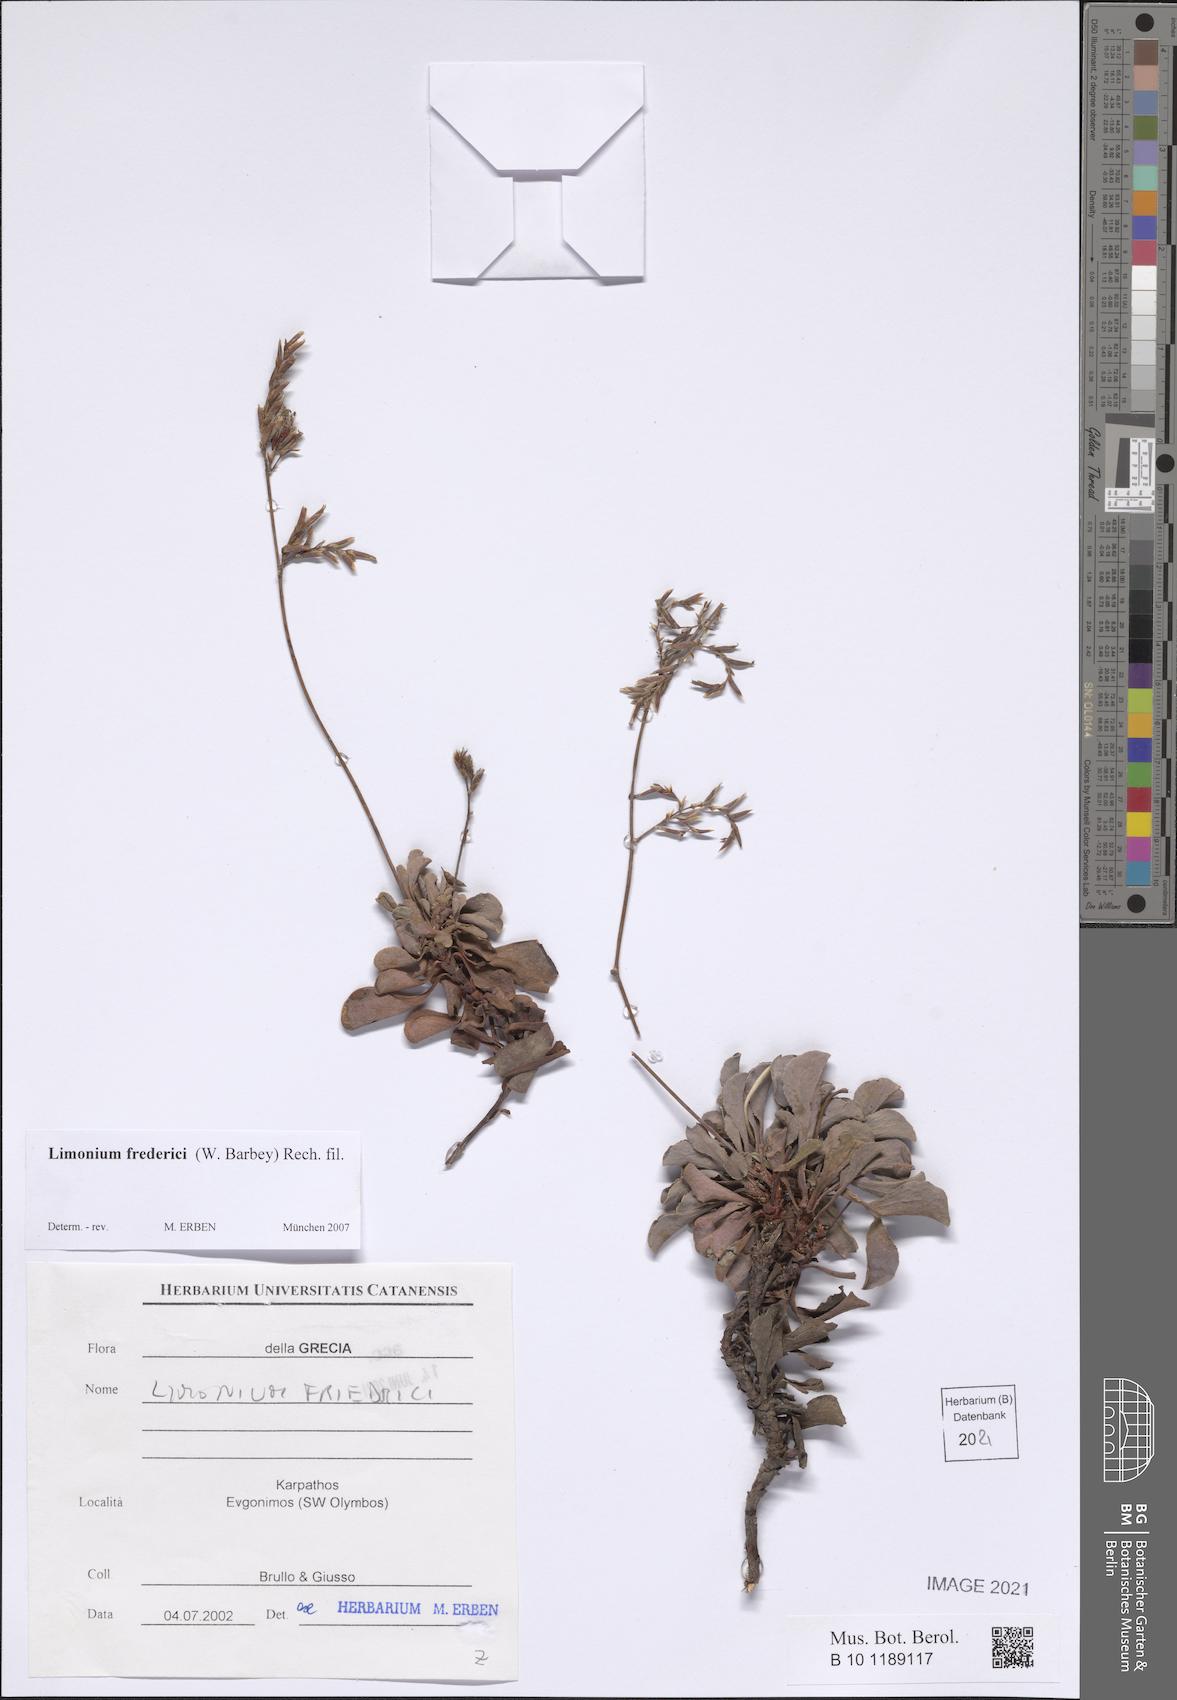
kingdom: Plantae
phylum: Tracheophyta
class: Magnoliopsida
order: Caryophyllales
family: Plumbaginaceae
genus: Limonium
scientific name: Limonium frederici
